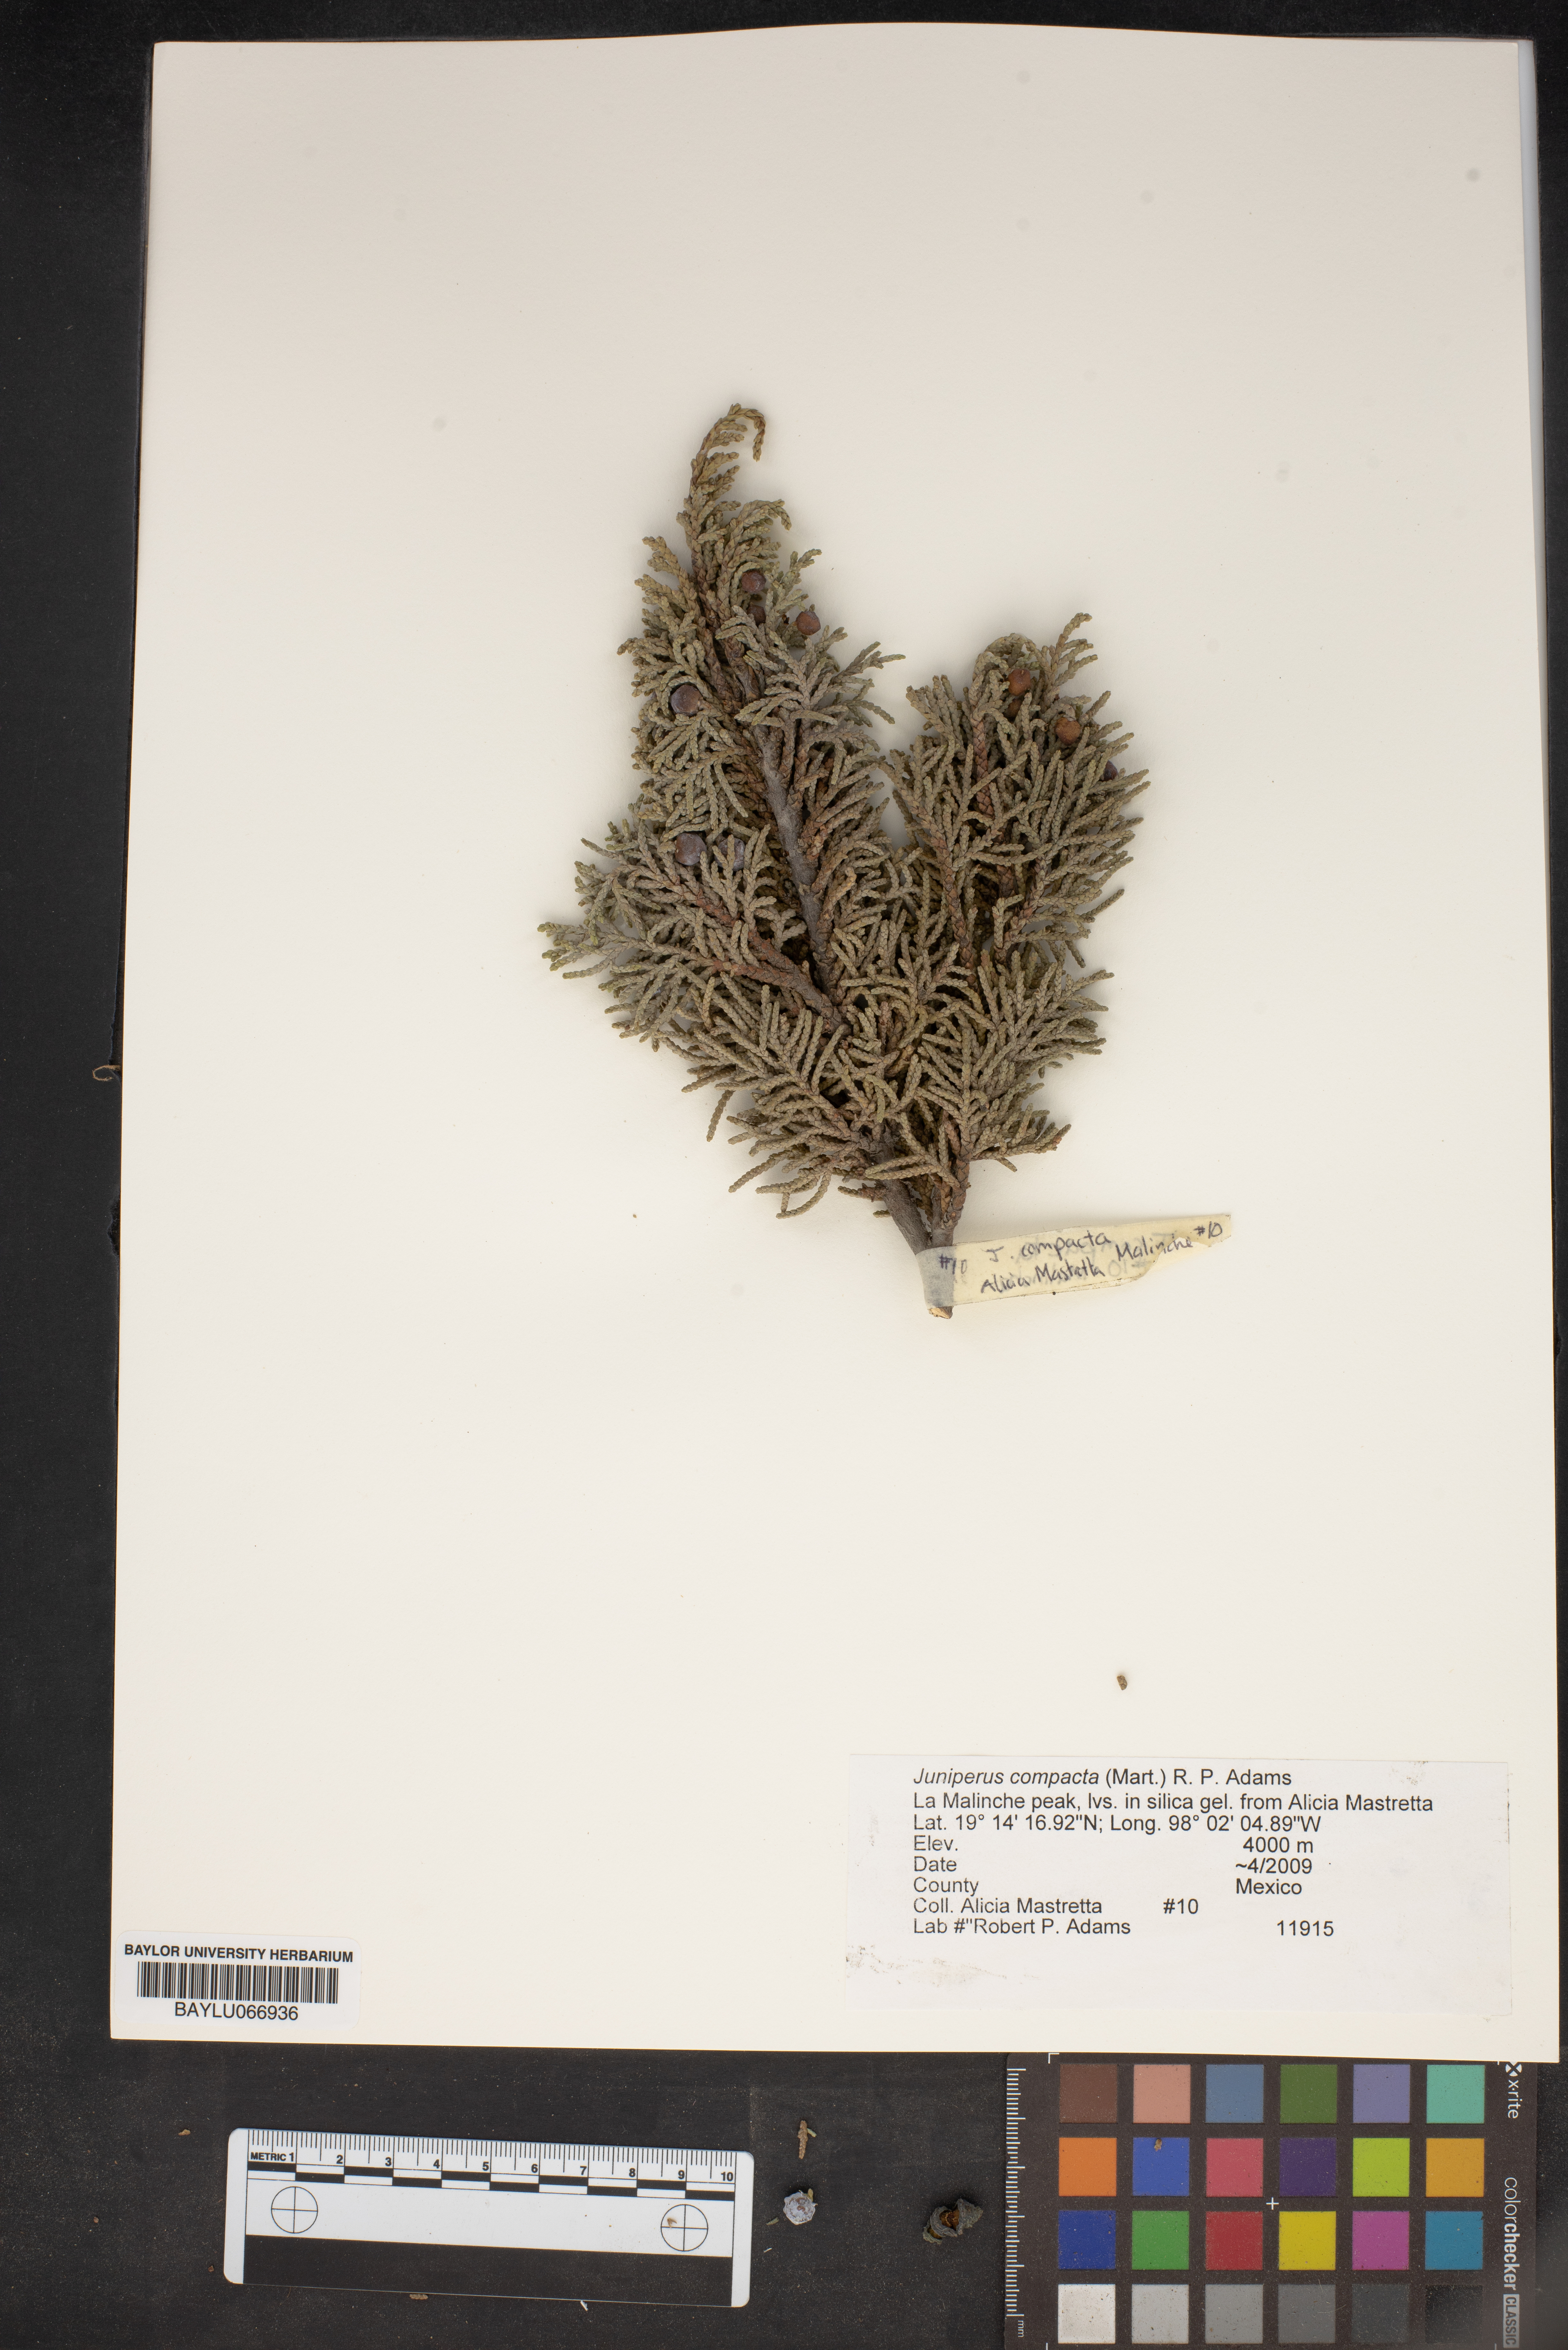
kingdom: Plantae
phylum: Tracheophyta
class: Pinopsida
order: Pinales
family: Cupressaceae
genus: Juniperus
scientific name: Juniperus monticola
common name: Mexican juniper
